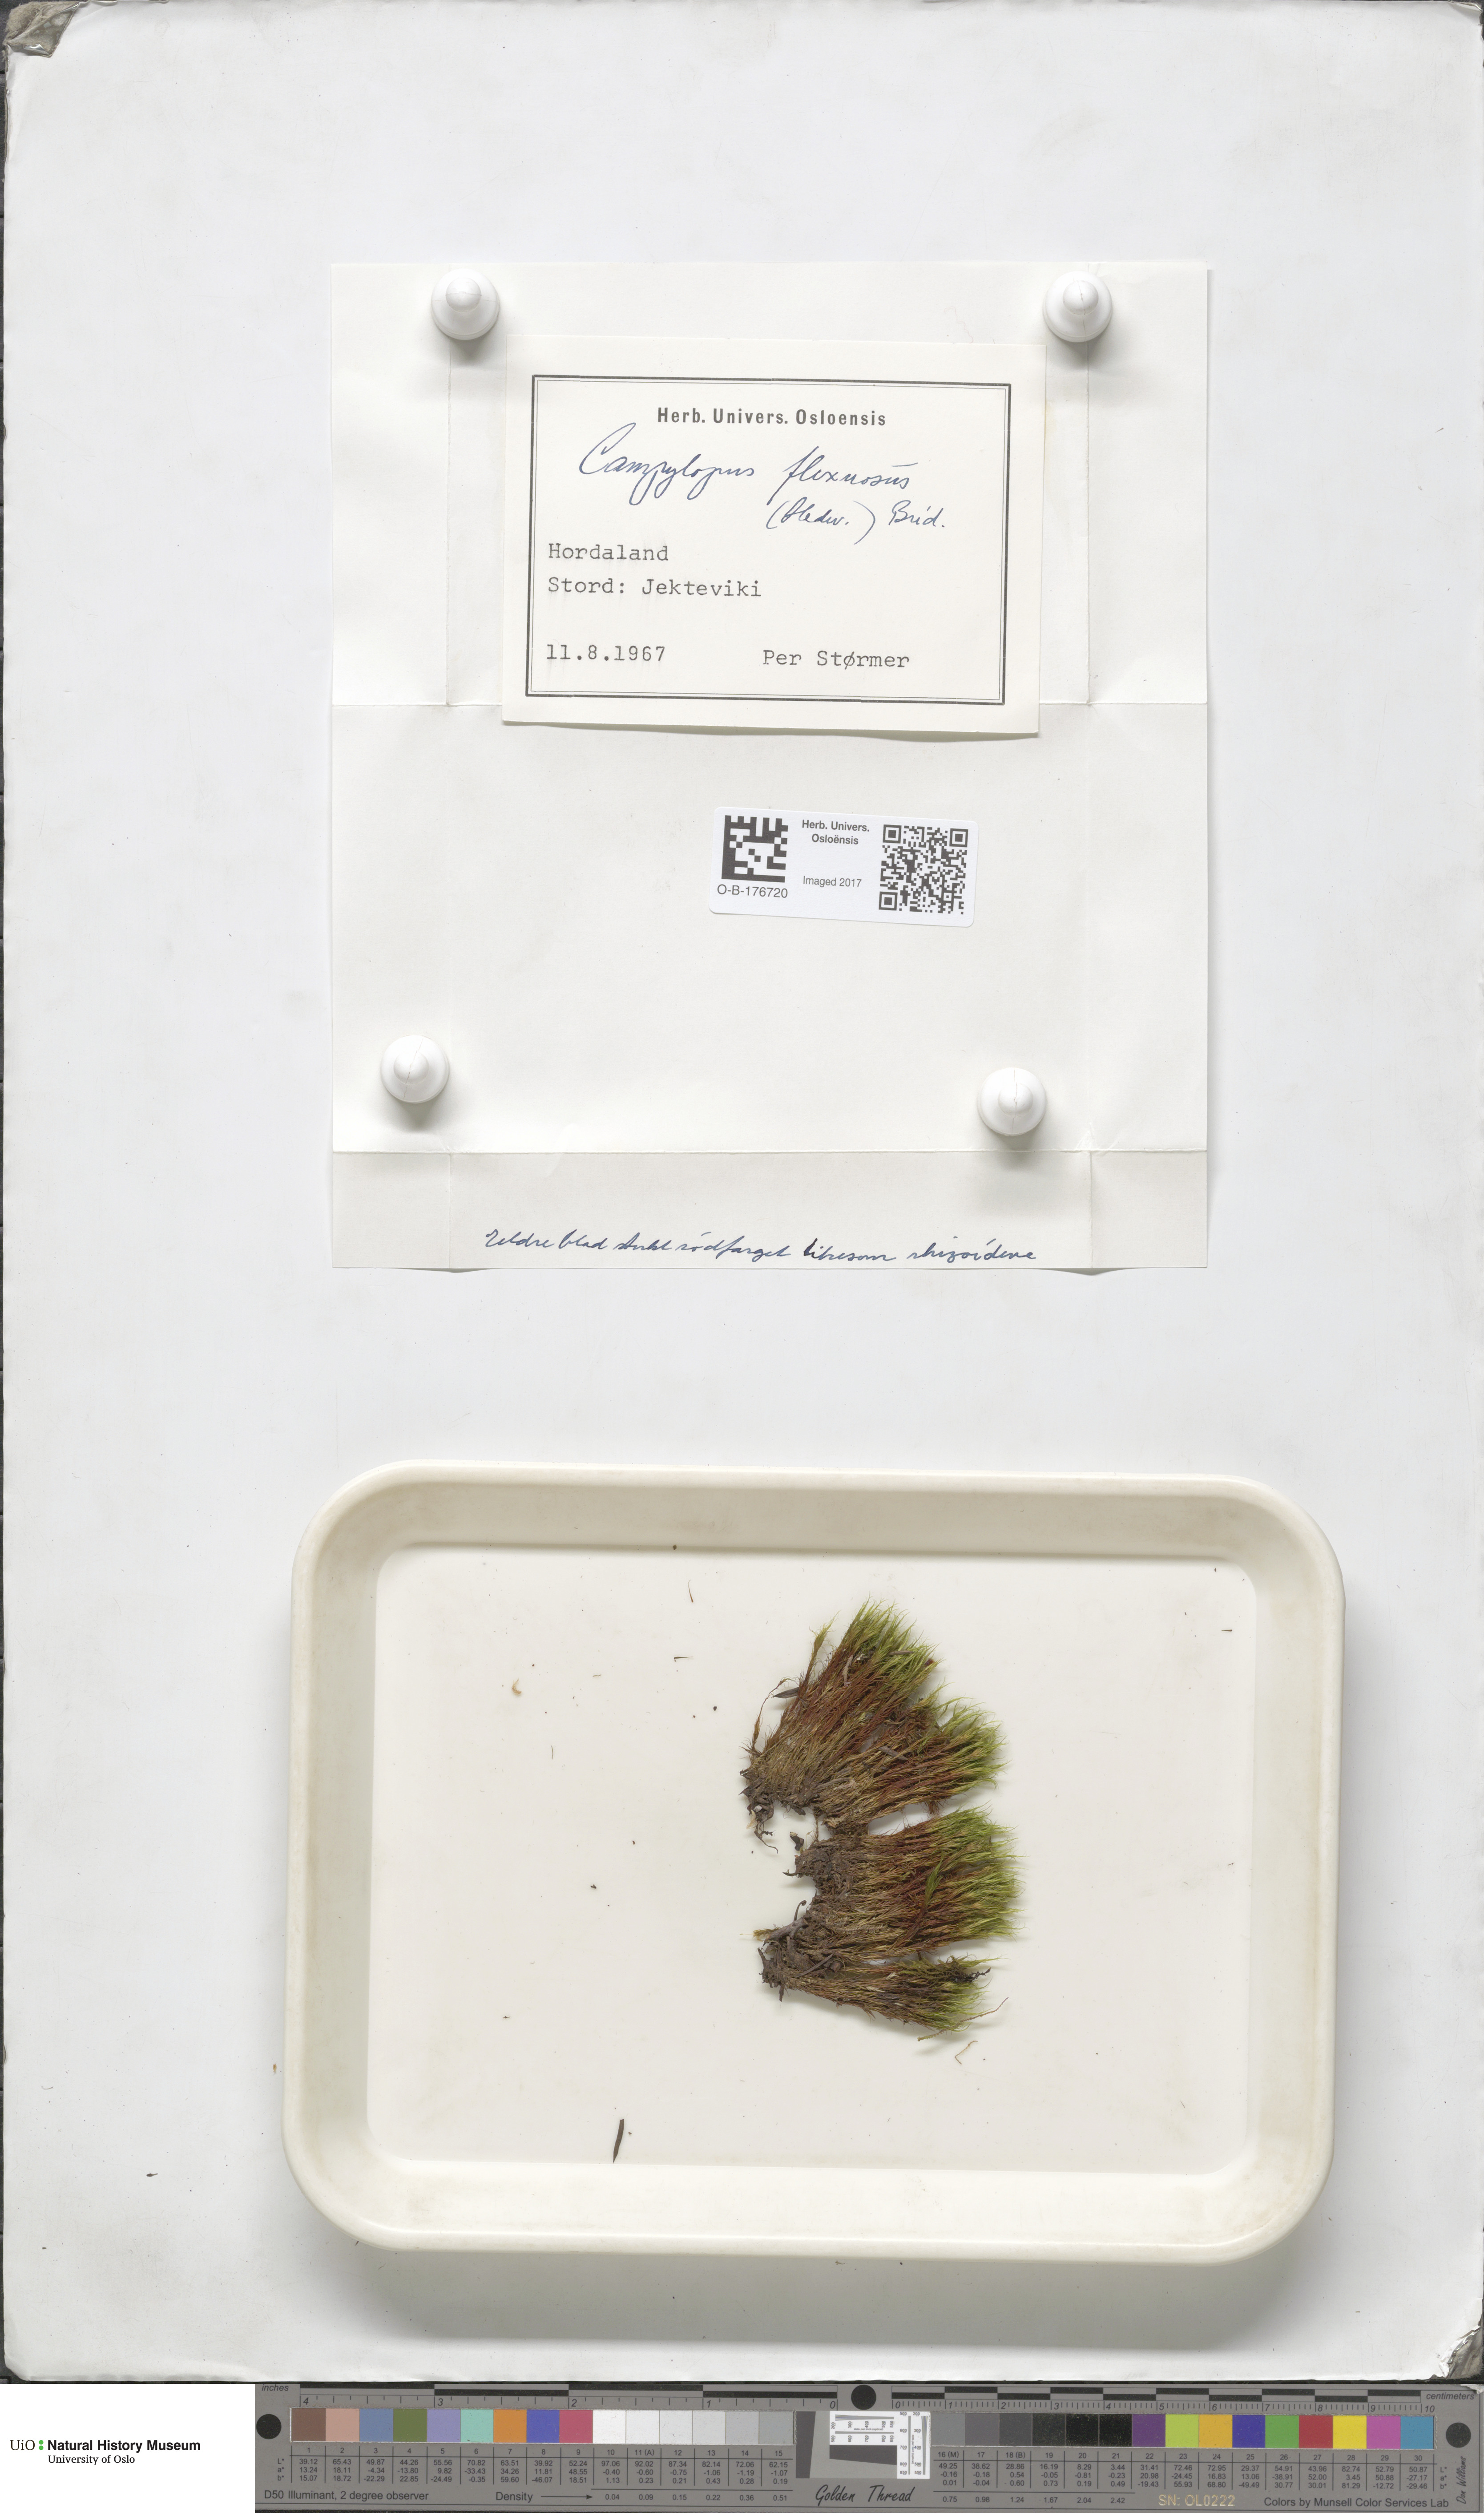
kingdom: Plantae
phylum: Bryophyta
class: Bryopsida
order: Dicranales
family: Leucobryaceae
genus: Campylopus
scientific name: Campylopus flexuosus
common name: Rusty swan-neck moss
